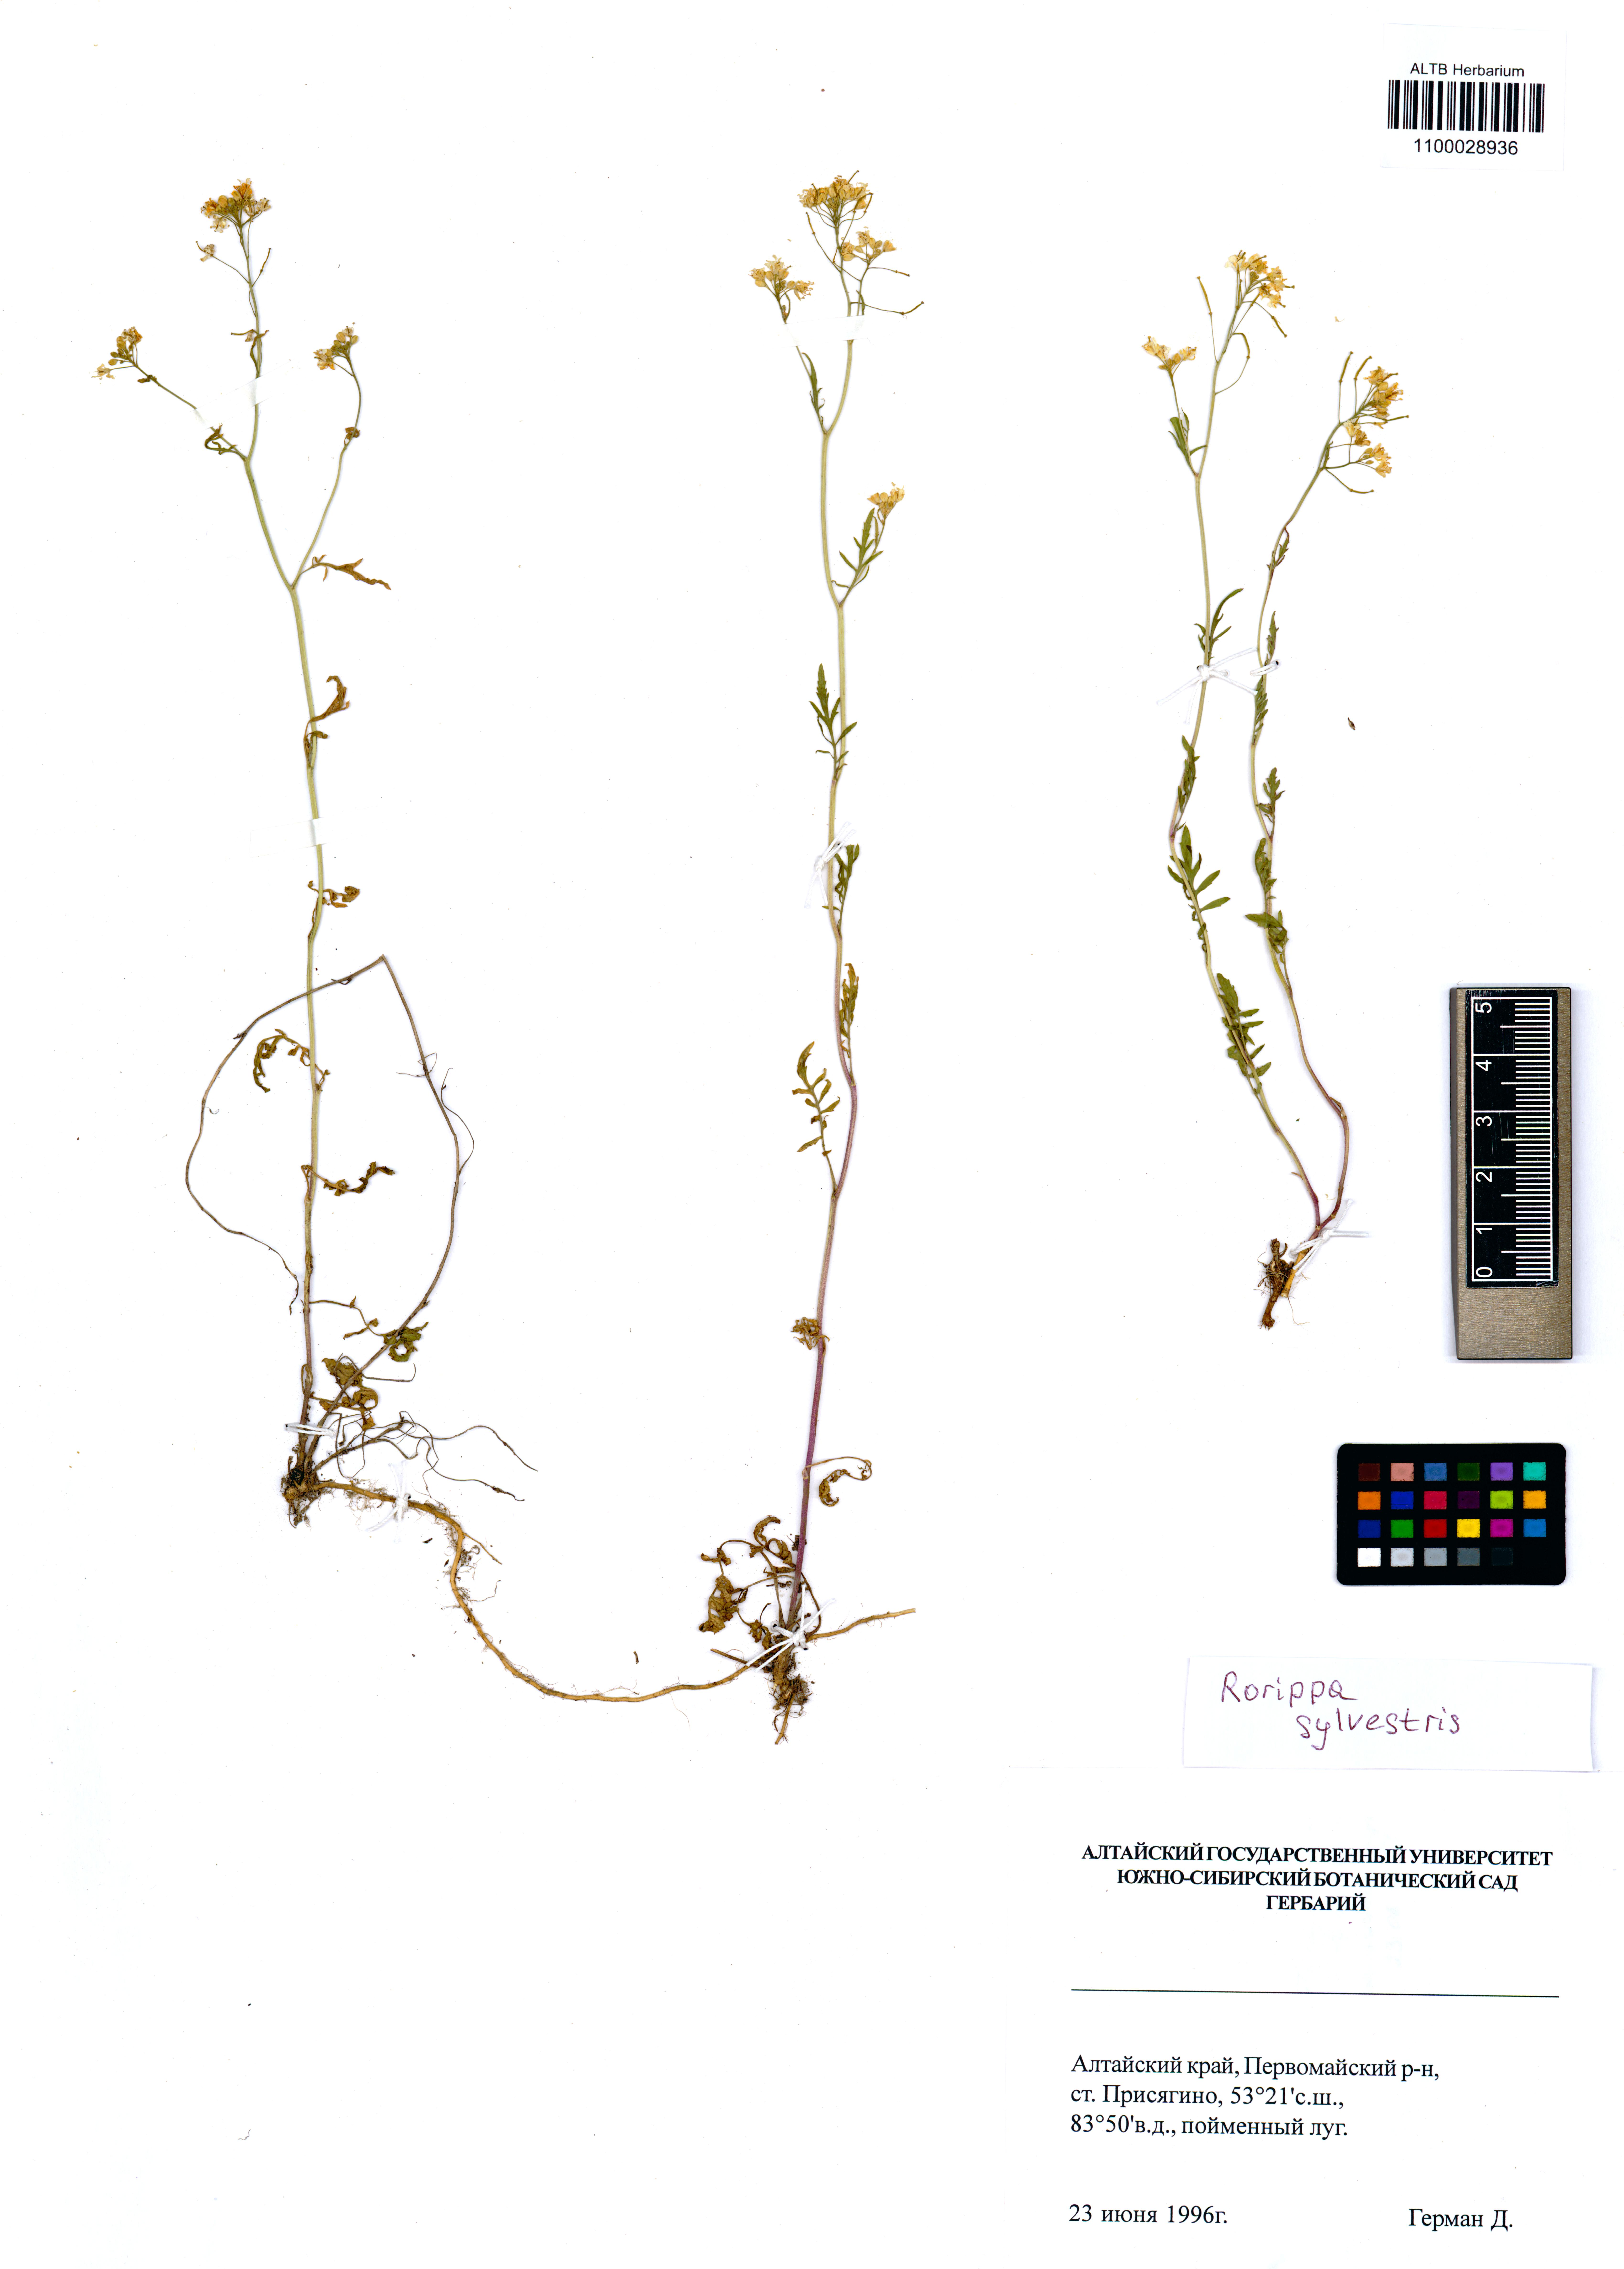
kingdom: Plantae
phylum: Tracheophyta
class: Magnoliopsida
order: Brassicales
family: Brassicaceae
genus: Rorippa
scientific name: Rorippa sylvestris
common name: Creeping yellowcress
